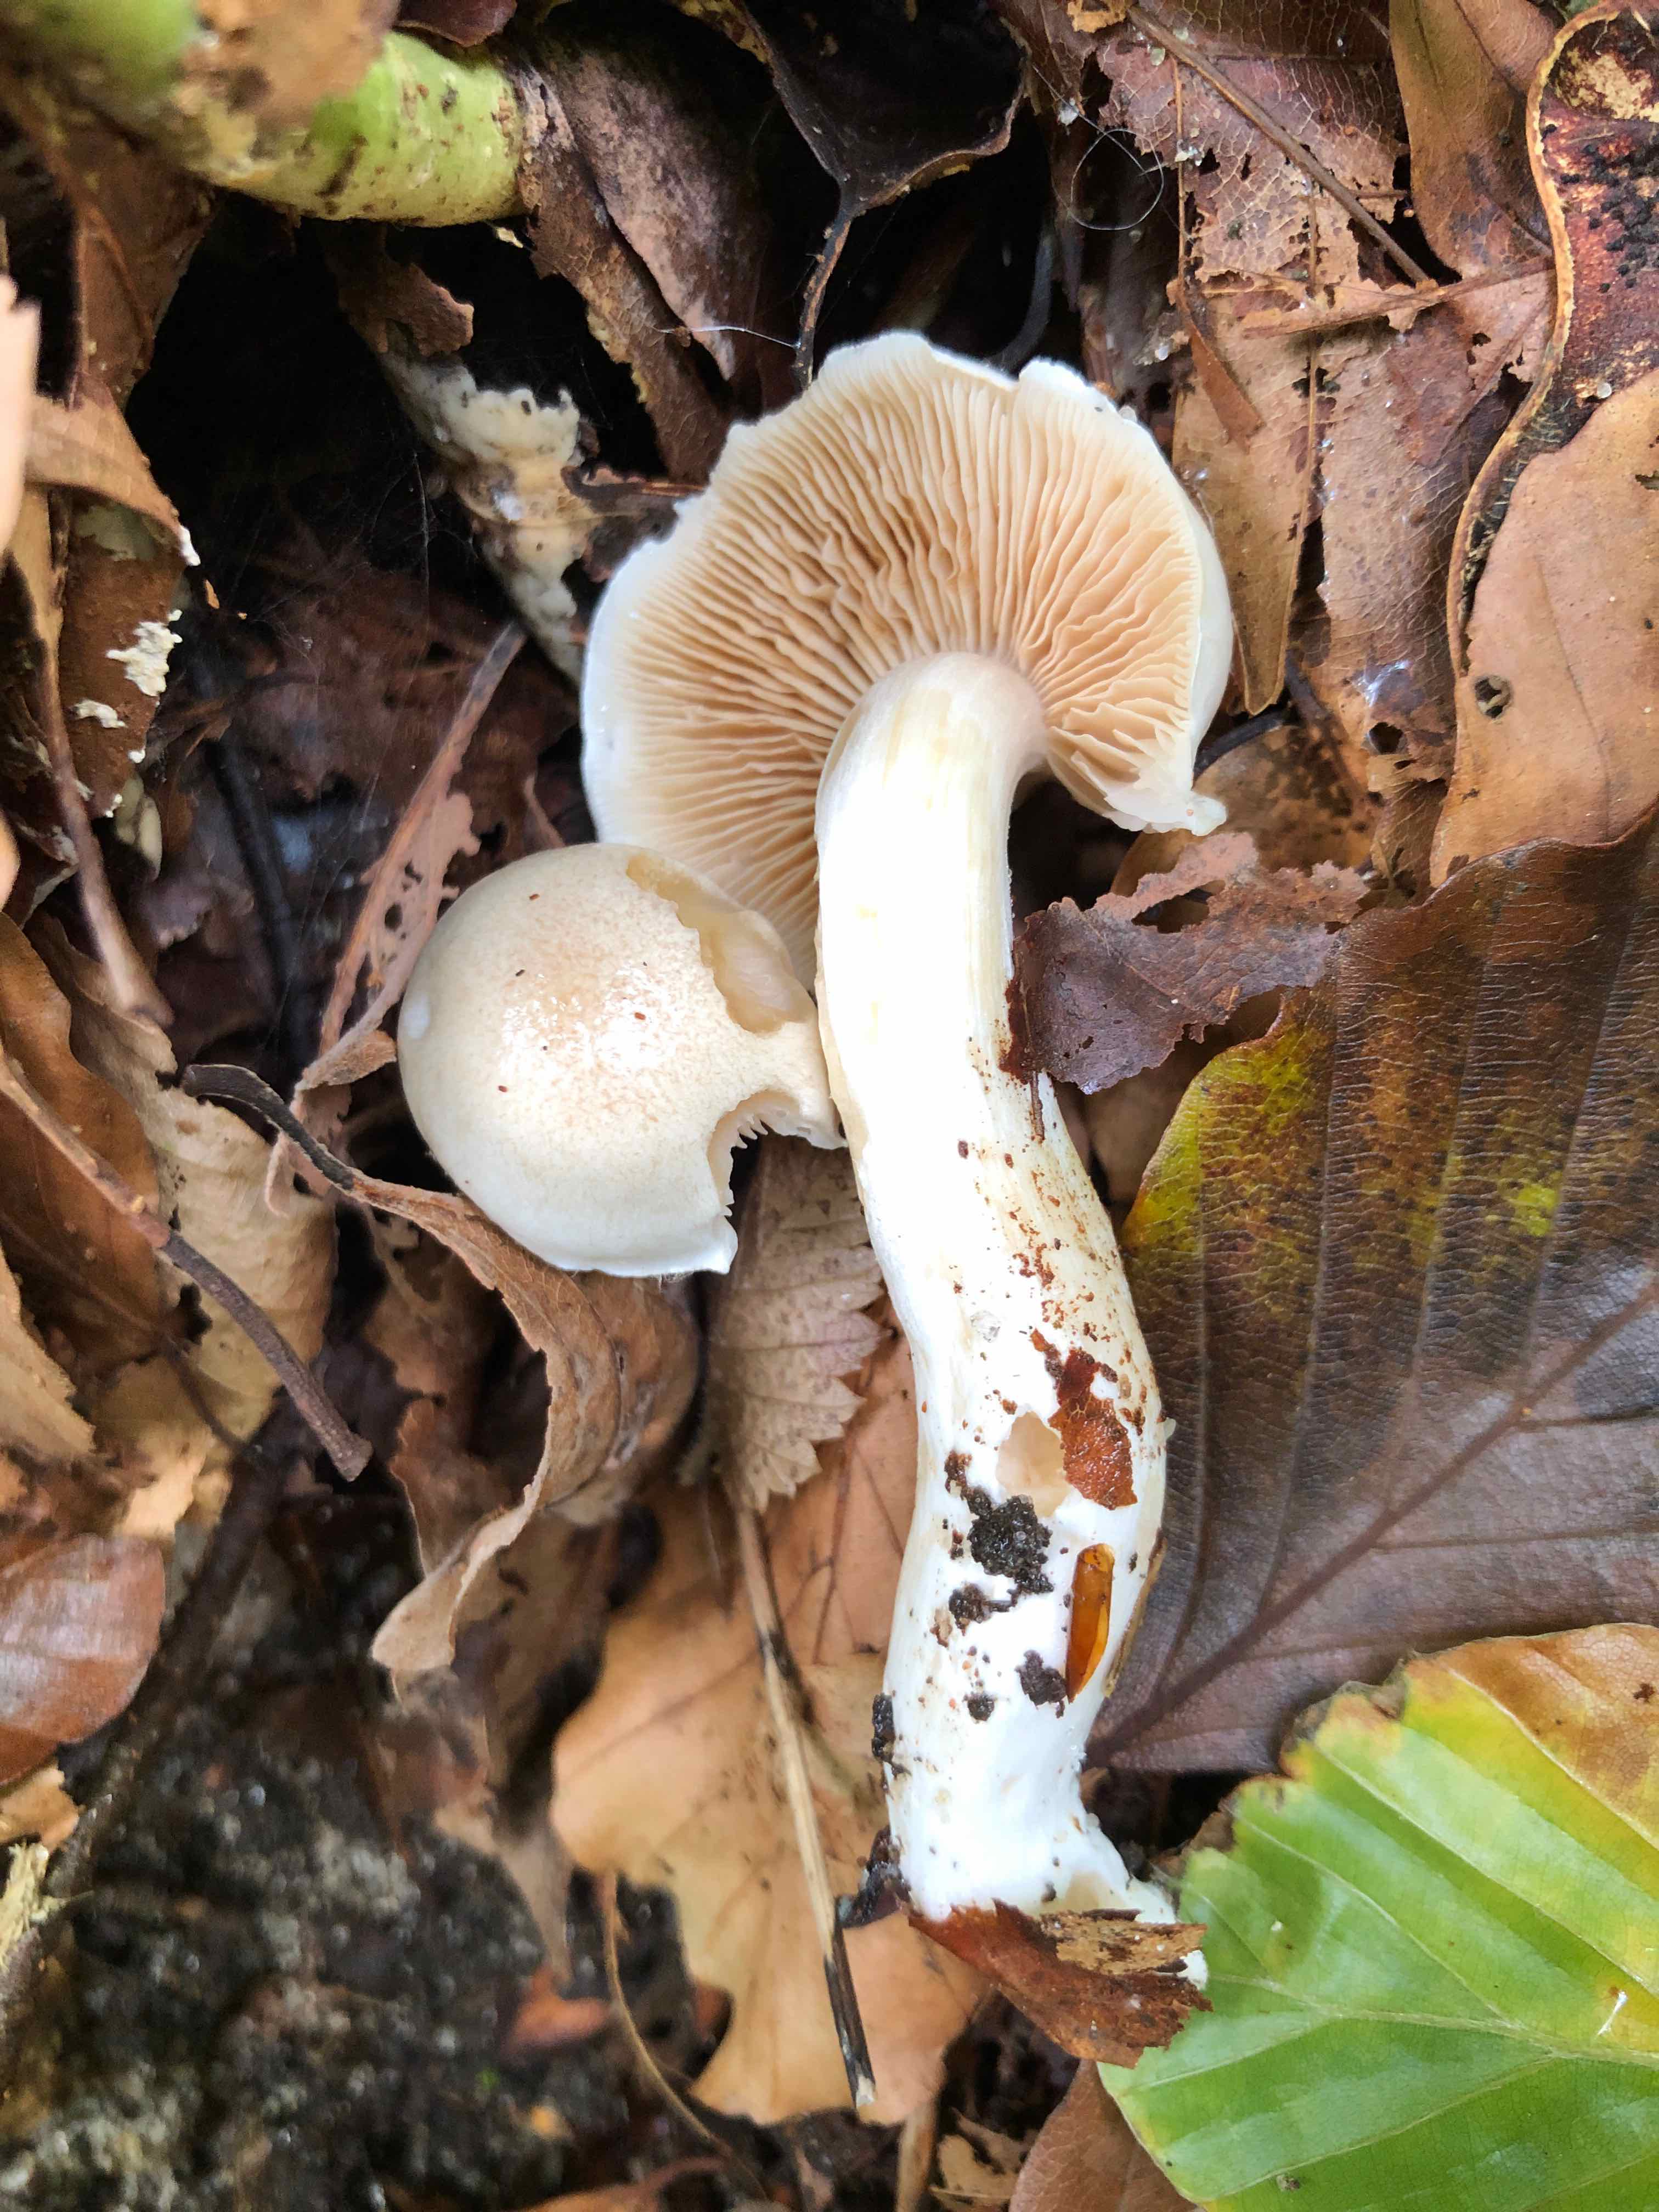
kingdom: Fungi
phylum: Basidiomycota
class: Agaricomycetes
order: Agaricales
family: Cortinariaceae
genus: Thaxterogaster
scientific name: Thaxterogaster barbatus
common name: elfenbens-slørhat
